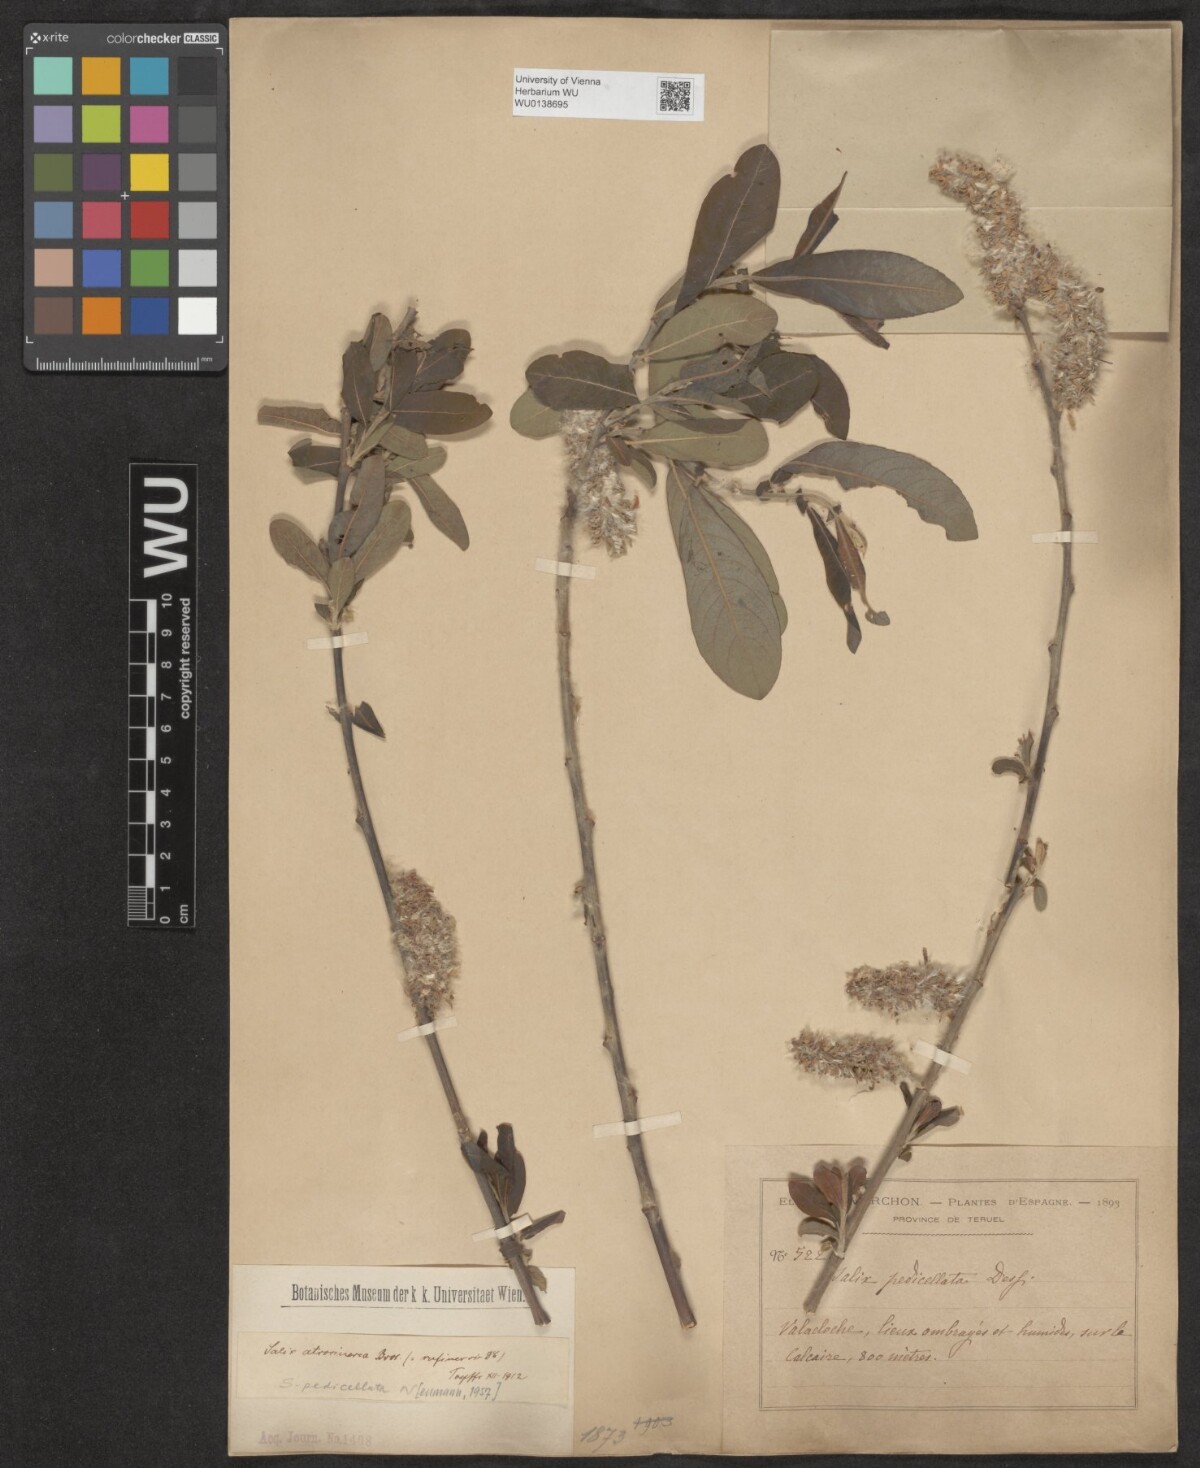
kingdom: Plantae
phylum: Tracheophyta
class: Magnoliopsida
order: Malpighiales
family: Salicaceae
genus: Salix
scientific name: Salix pedicellata
